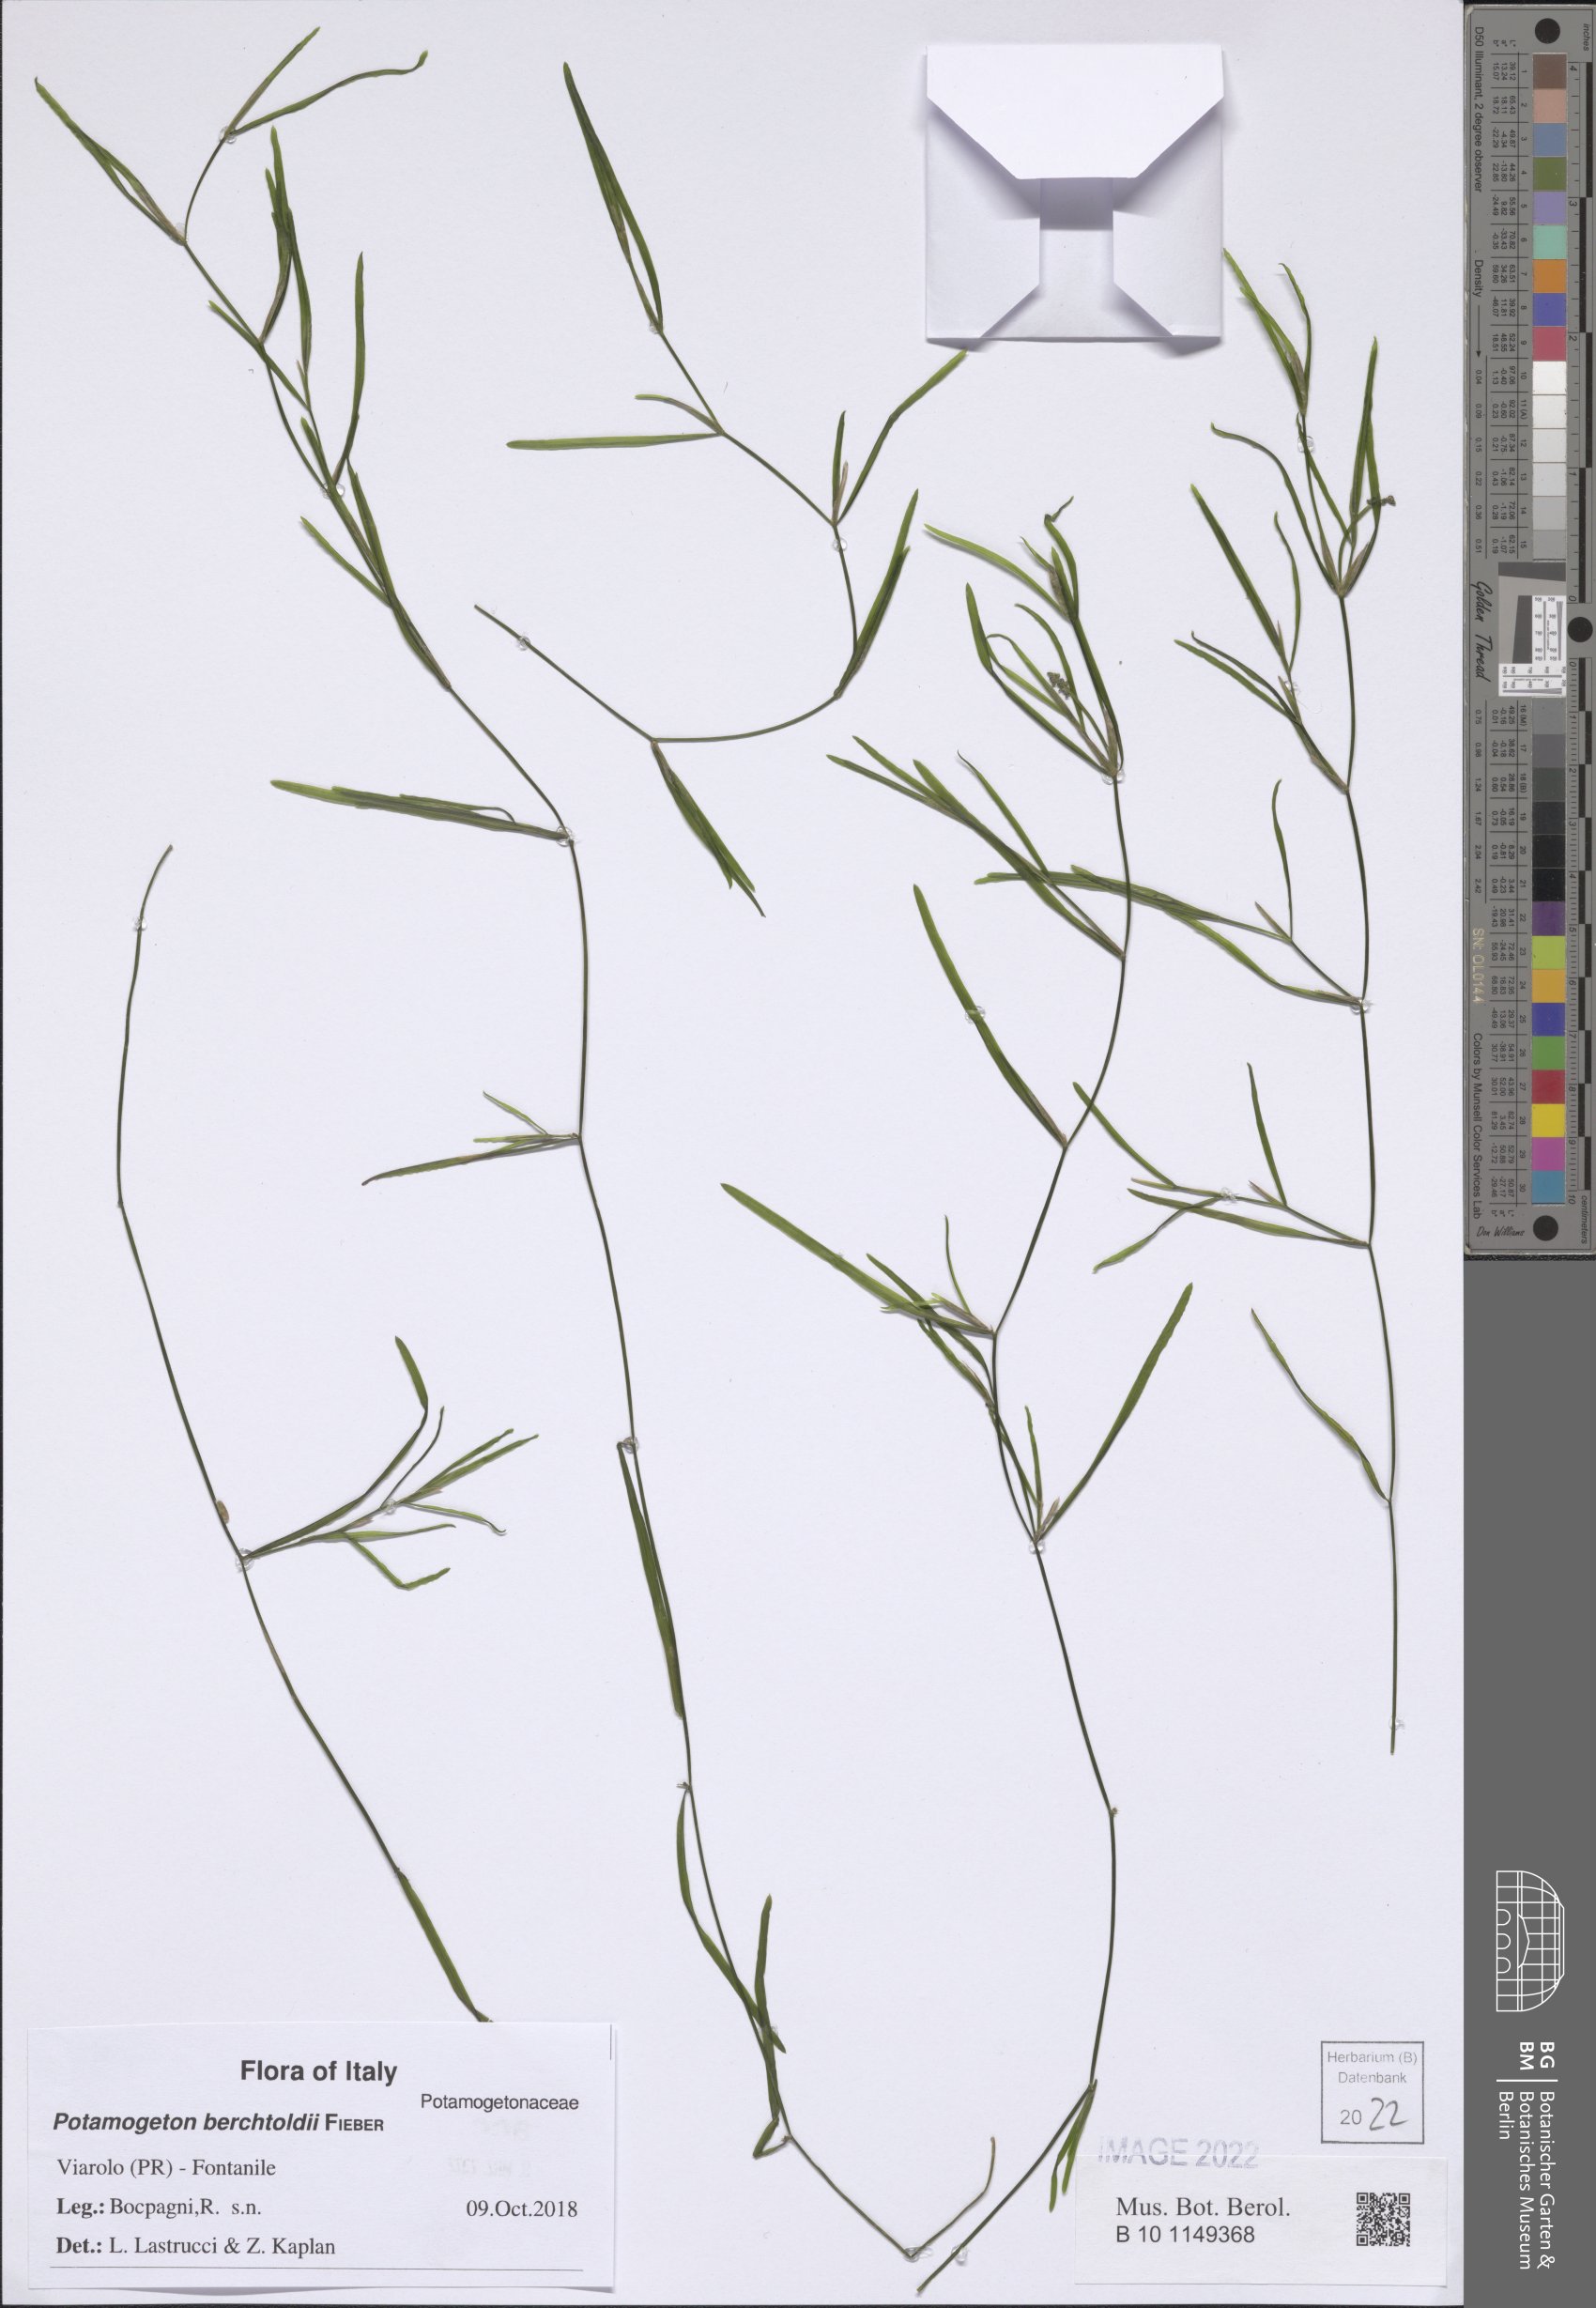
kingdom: Plantae
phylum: Tracheophyta
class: Liliopsida
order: Alismatales
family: Potamogetonaceae
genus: Potamogeton
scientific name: Potamogeton berchtoldii
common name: Small pondweed
